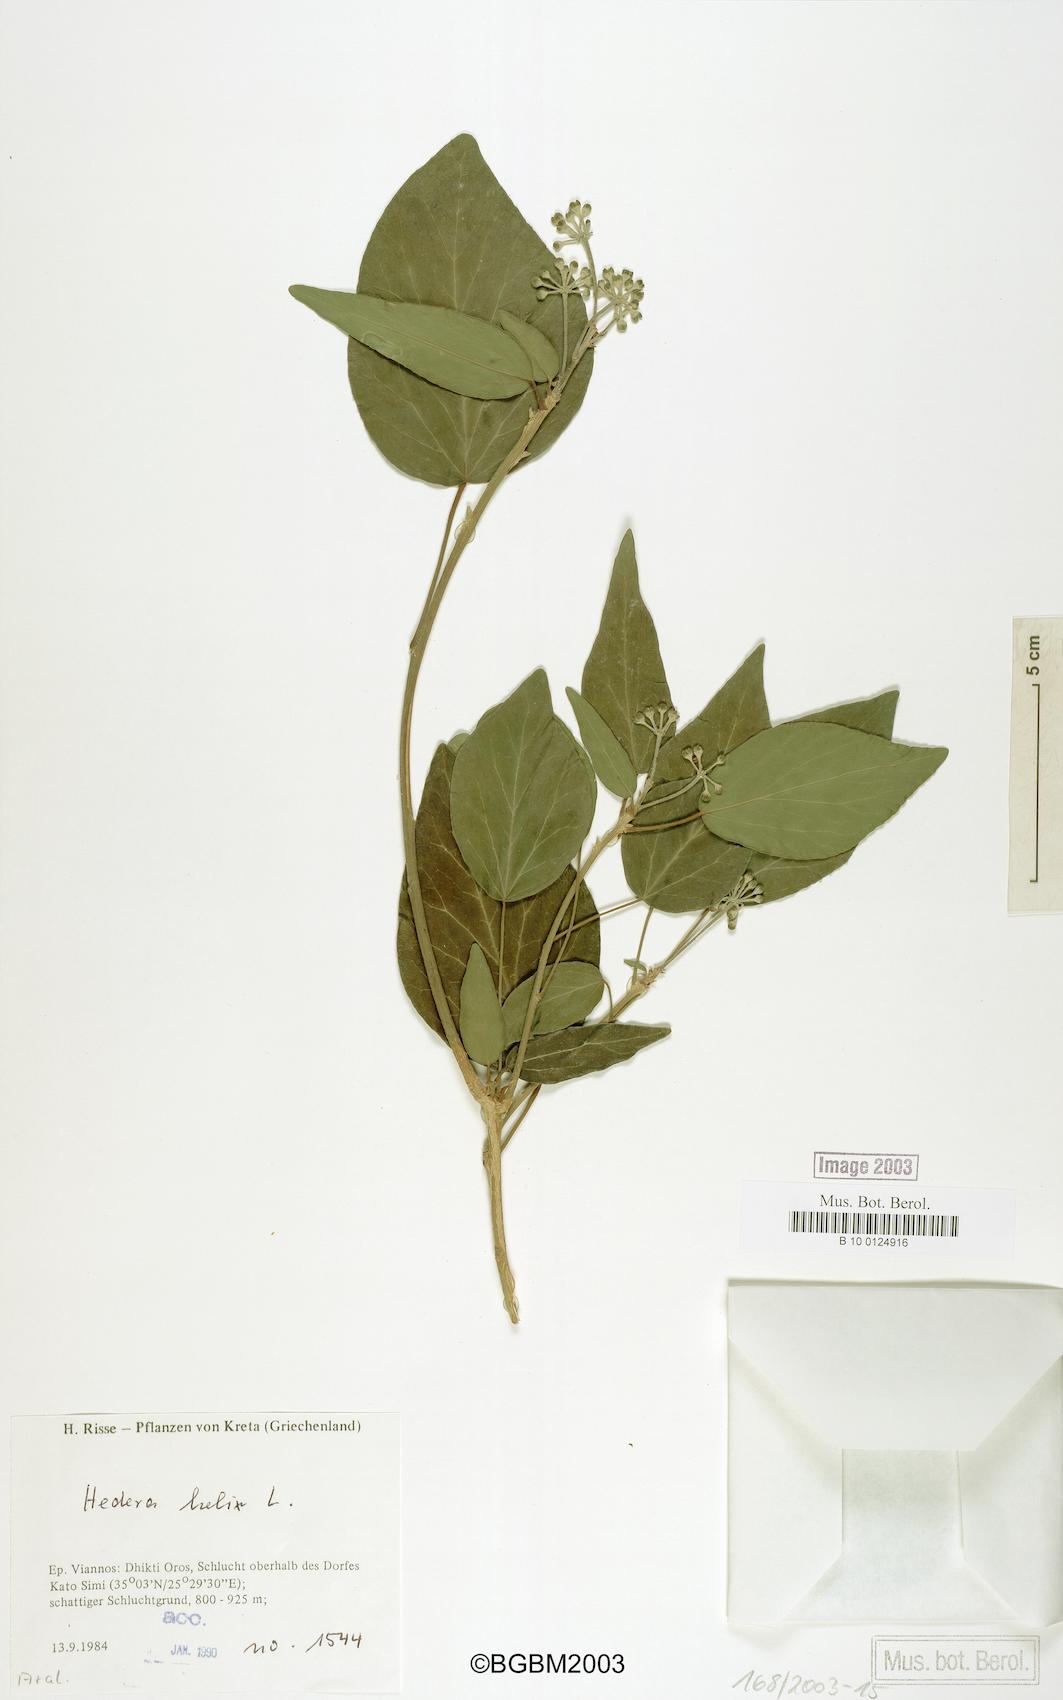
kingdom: Plantae
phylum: Tracheophyta
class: Magnoliopsida
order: Apiales
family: Araliaceae
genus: Hedera
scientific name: Hedera helix
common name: Ivy
